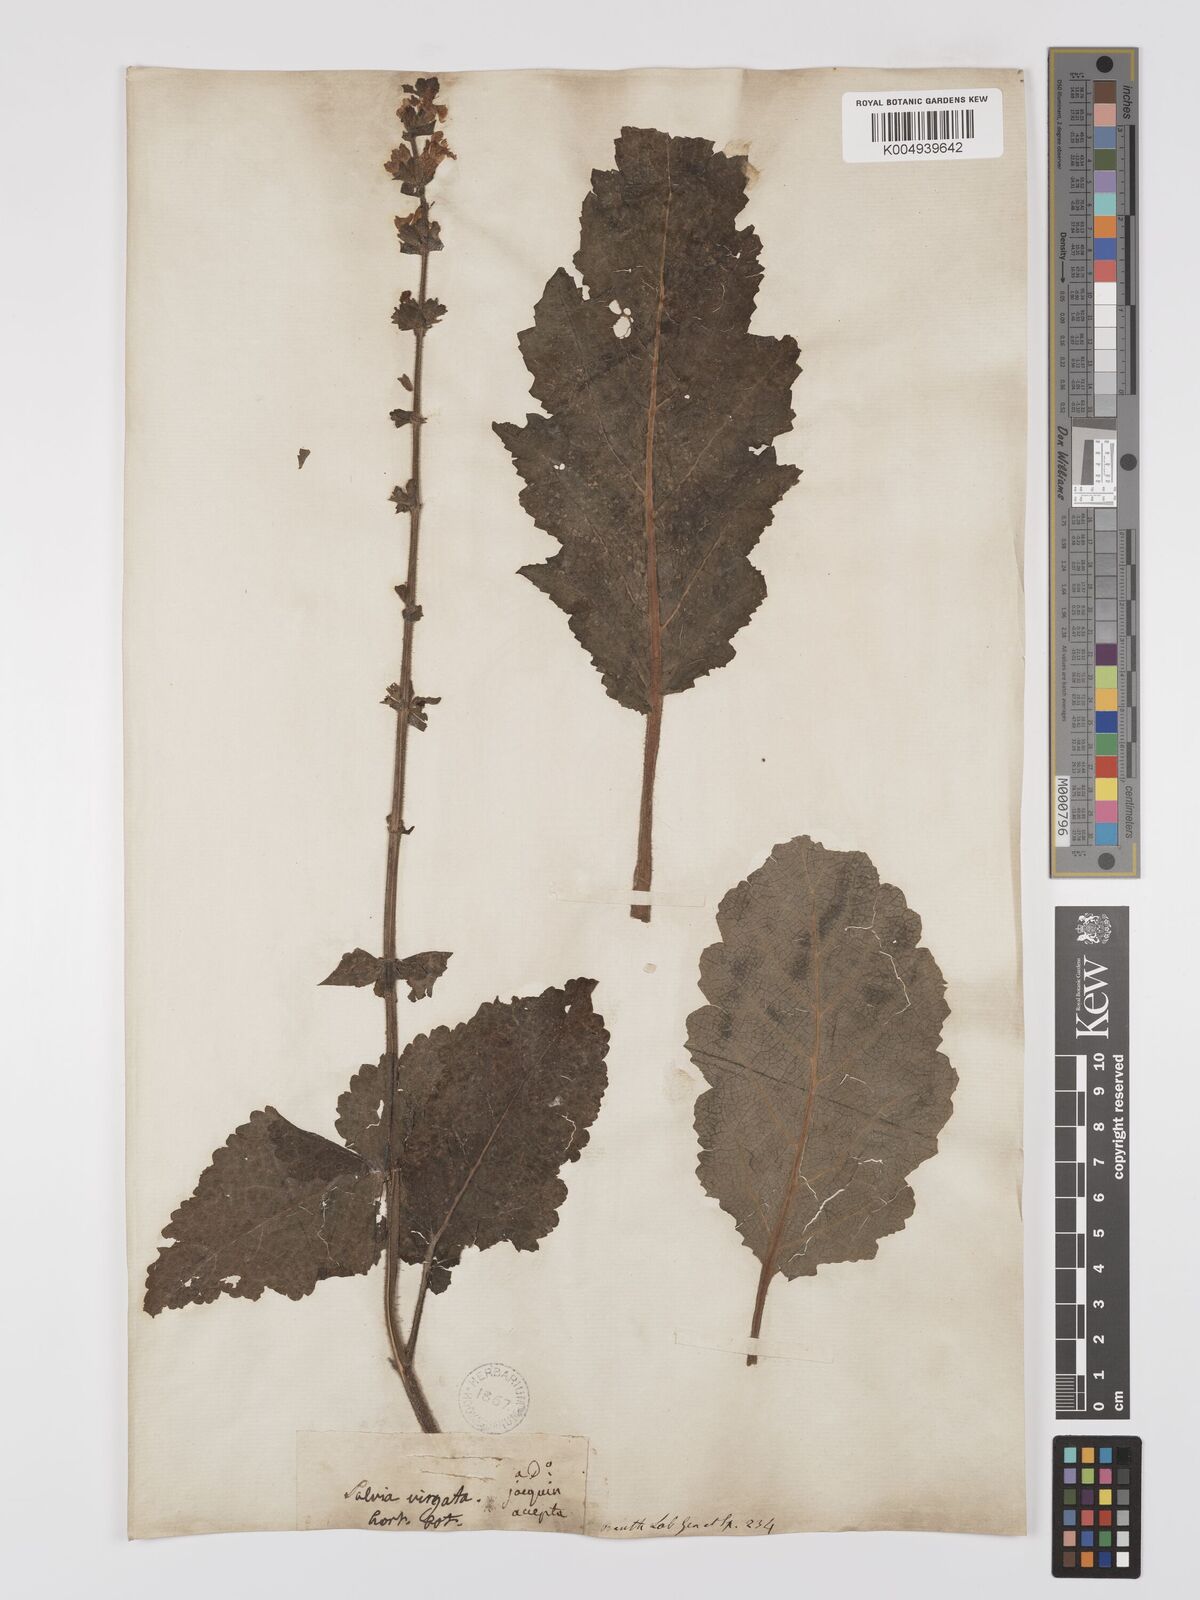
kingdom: Plantae
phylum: Tracheophyta
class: Magnoliopsida
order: Lamiales
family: Lamiaceae
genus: Salvia
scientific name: Salvia
